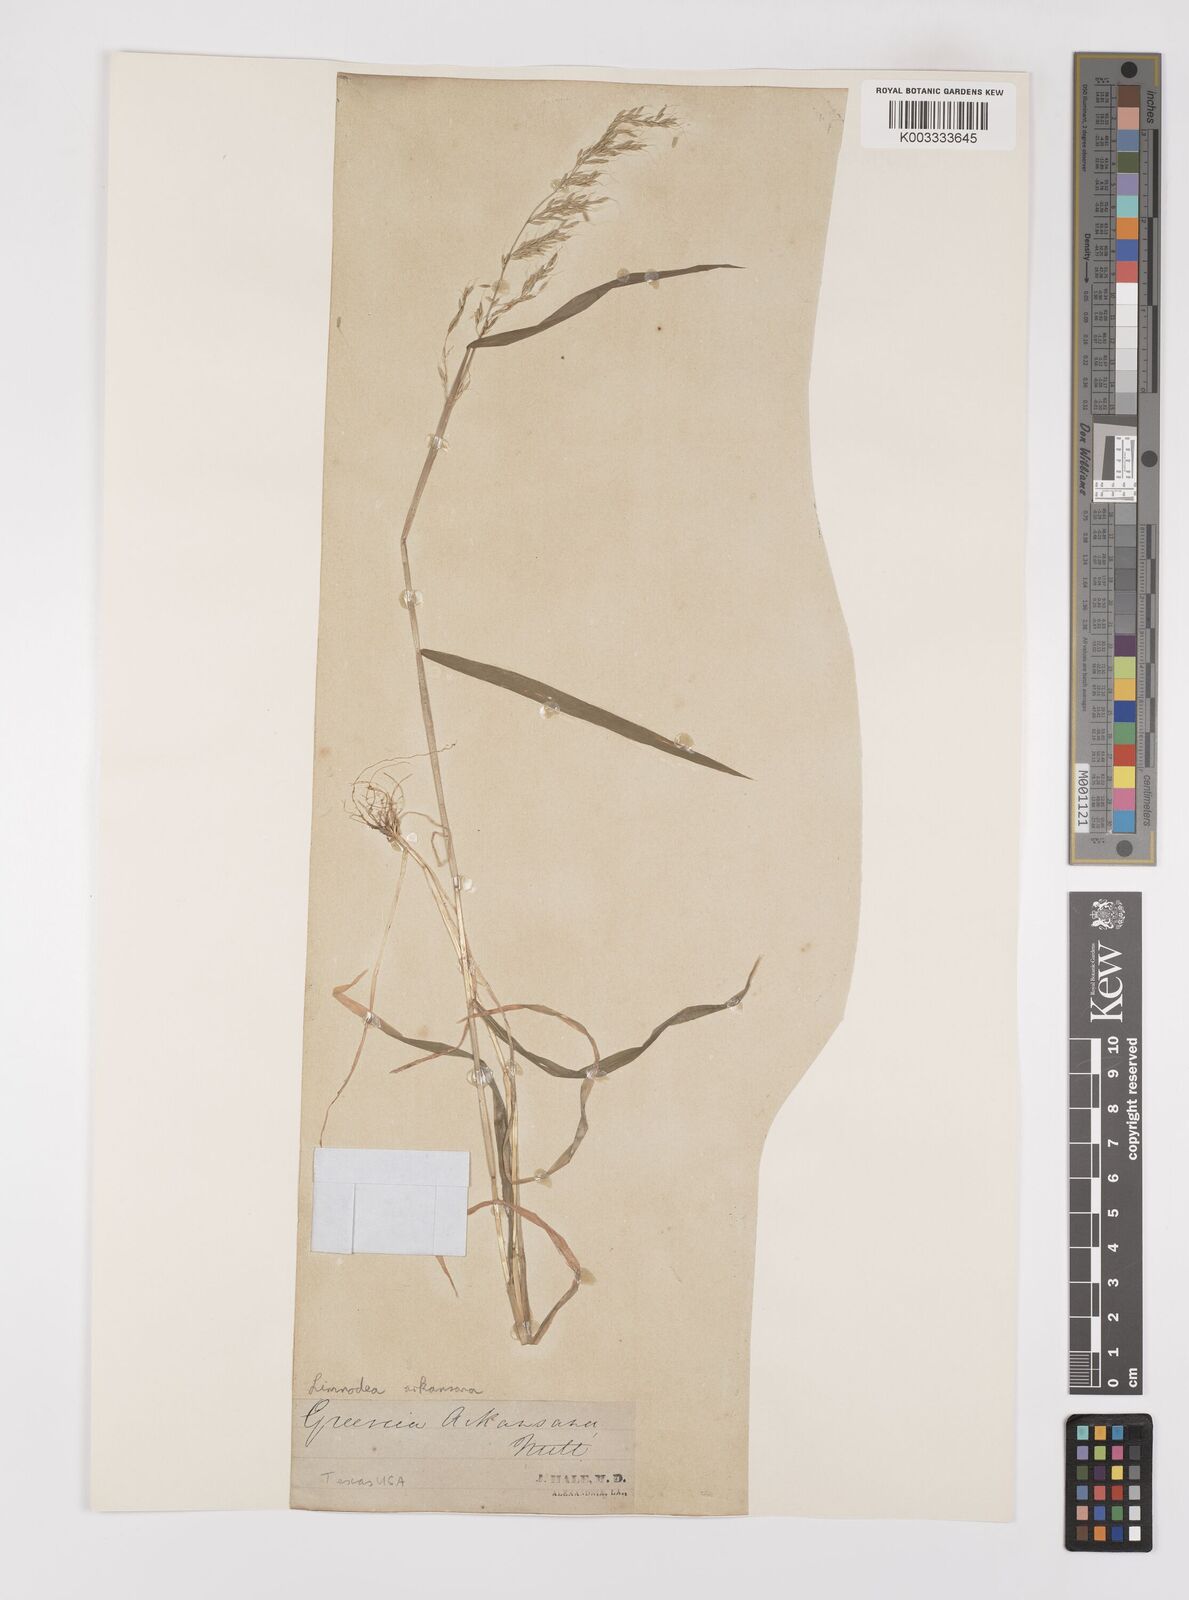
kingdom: Plantae
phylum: Tracheophyta
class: Liliopsida
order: Poales
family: Poaceae
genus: Limnodea
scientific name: Limnodea arkansana
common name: Ozark-grass
